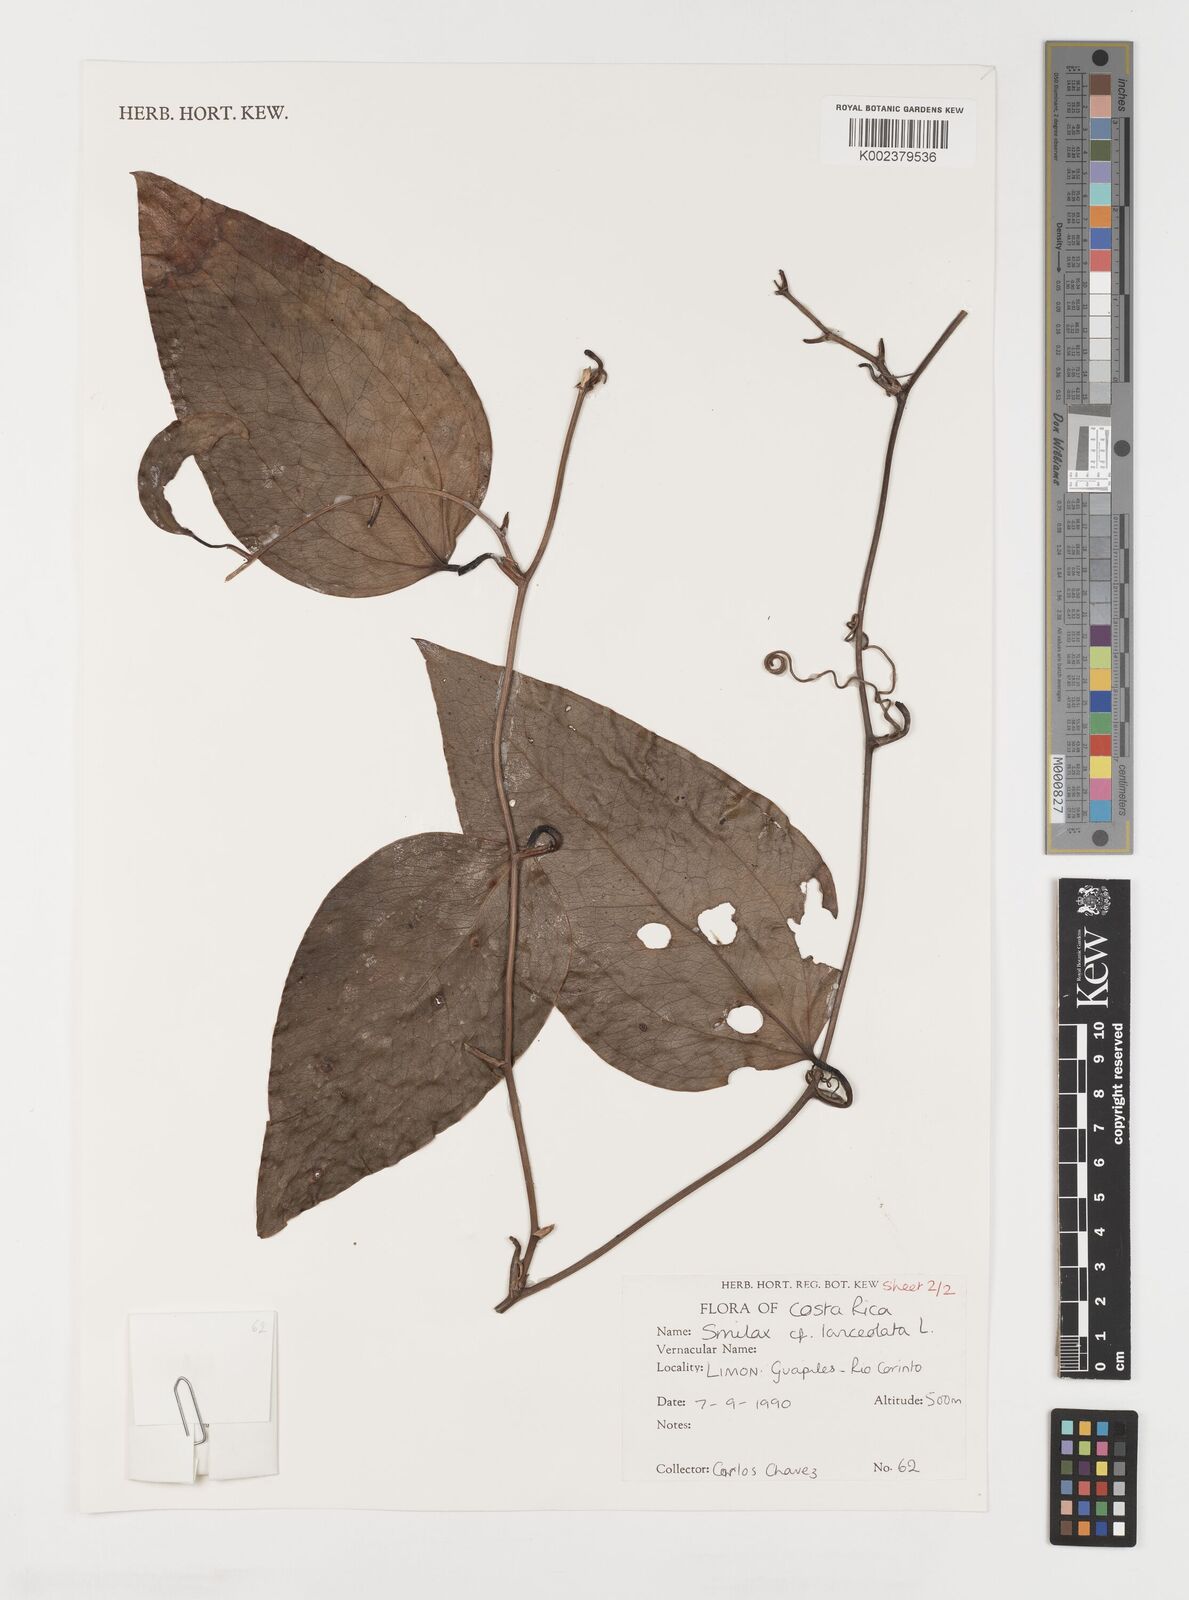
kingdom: Plantae
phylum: Tracheophyta
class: Liliopsida
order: Liliales
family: Smilacaceae
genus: Smilax
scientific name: Smilax laurifolia
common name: Bamboovine
